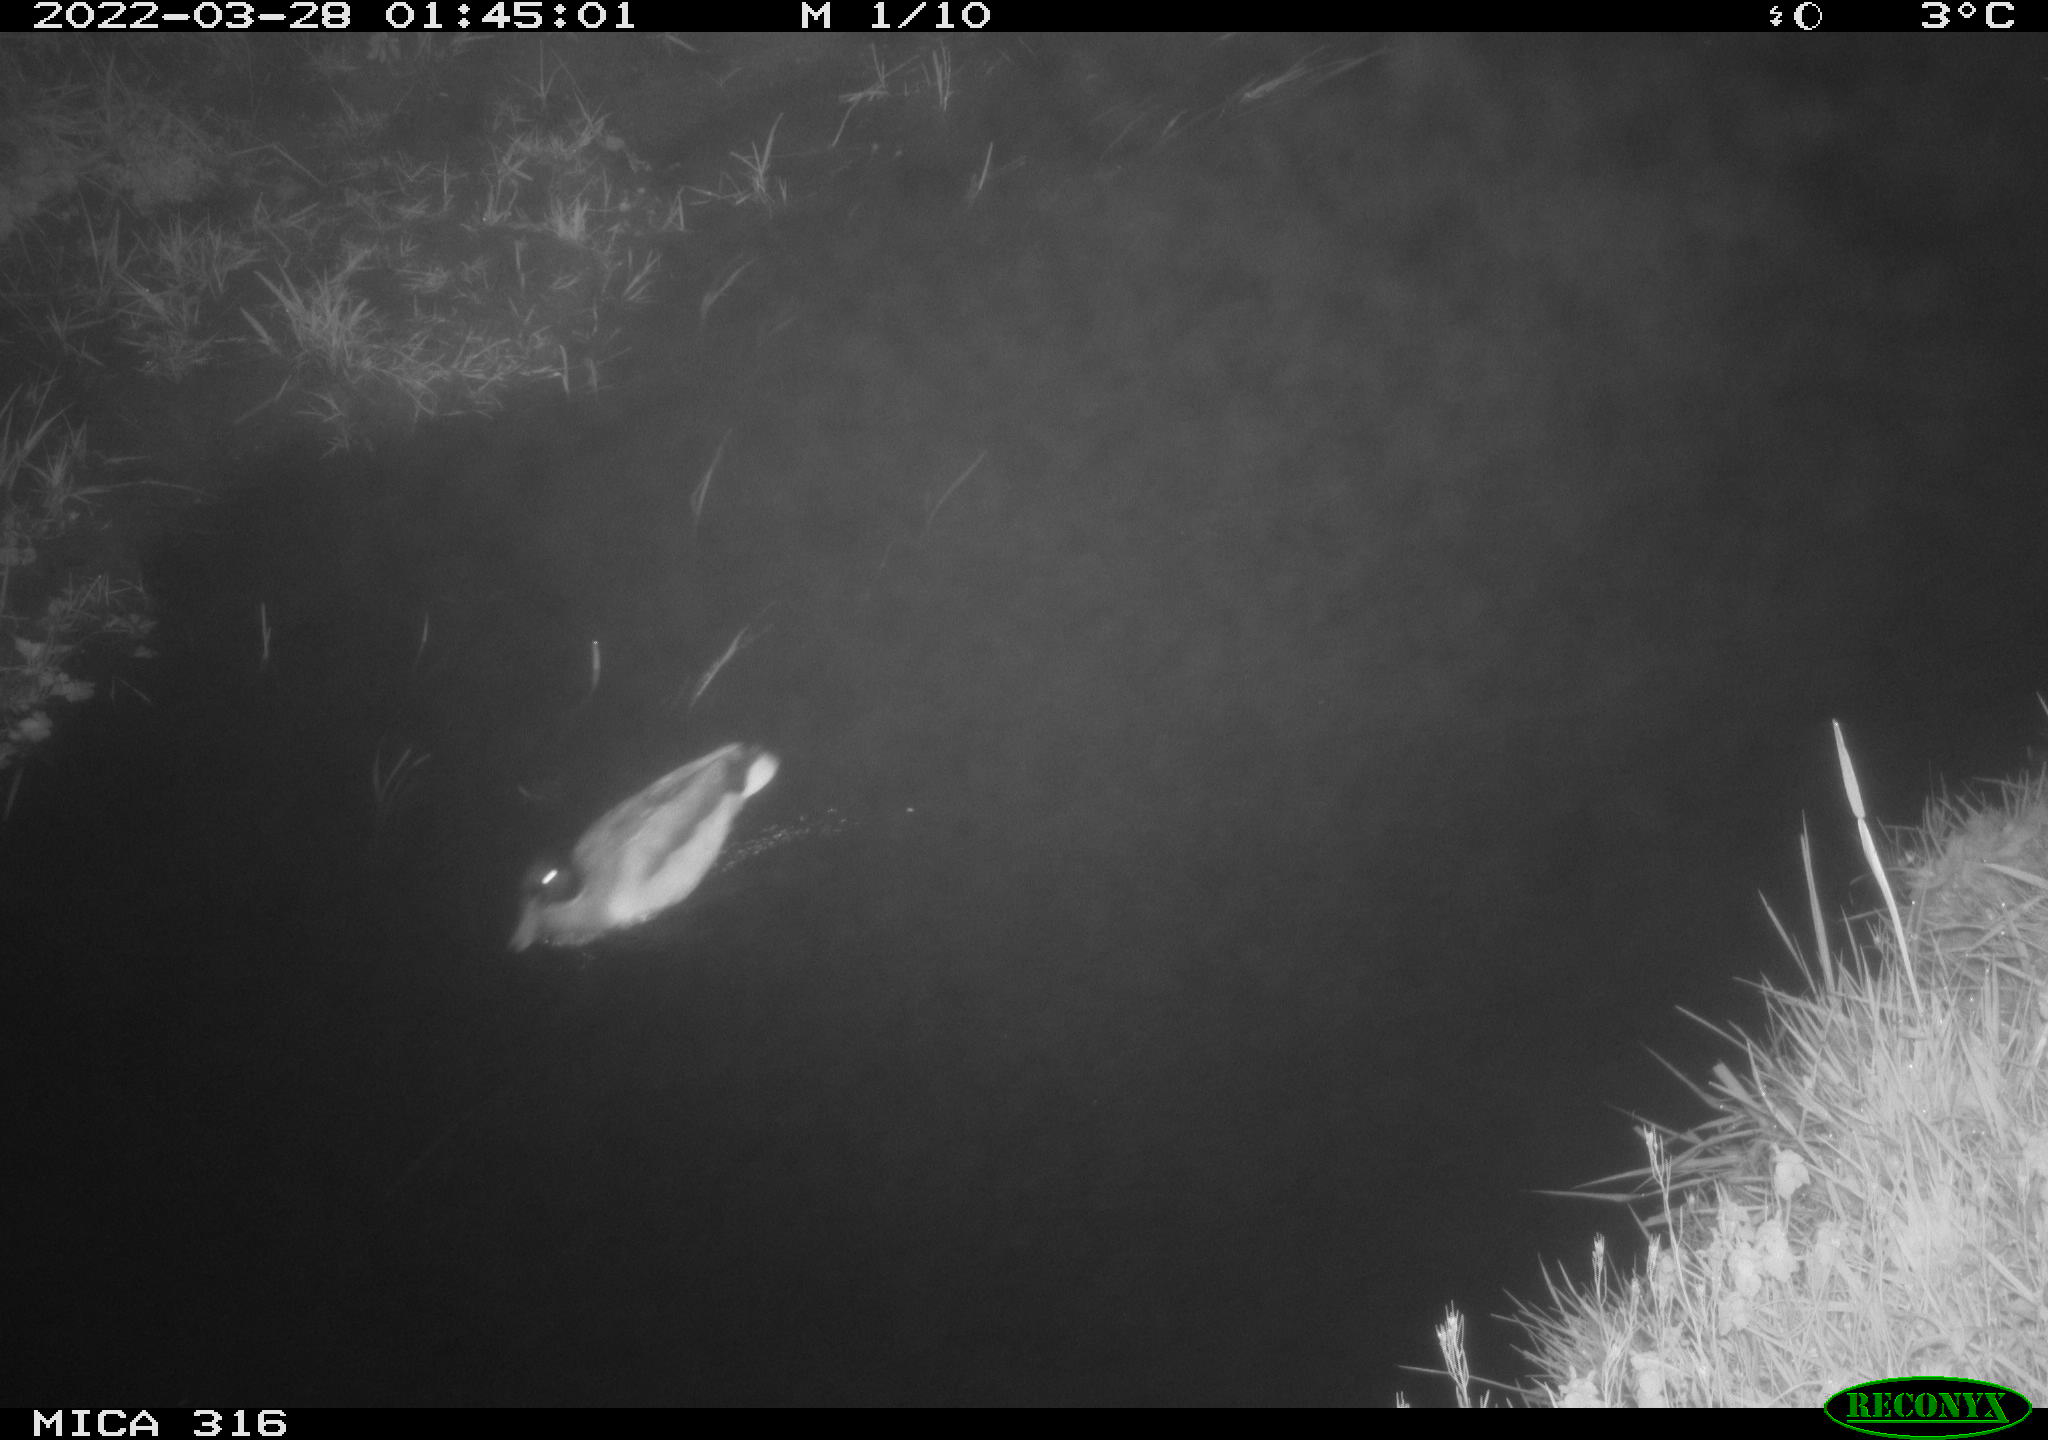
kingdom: Animalia
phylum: Chordata
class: Aves
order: Anseriformes
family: Anatidae
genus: Anas
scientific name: Anas platyrhynchos
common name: Mallard
